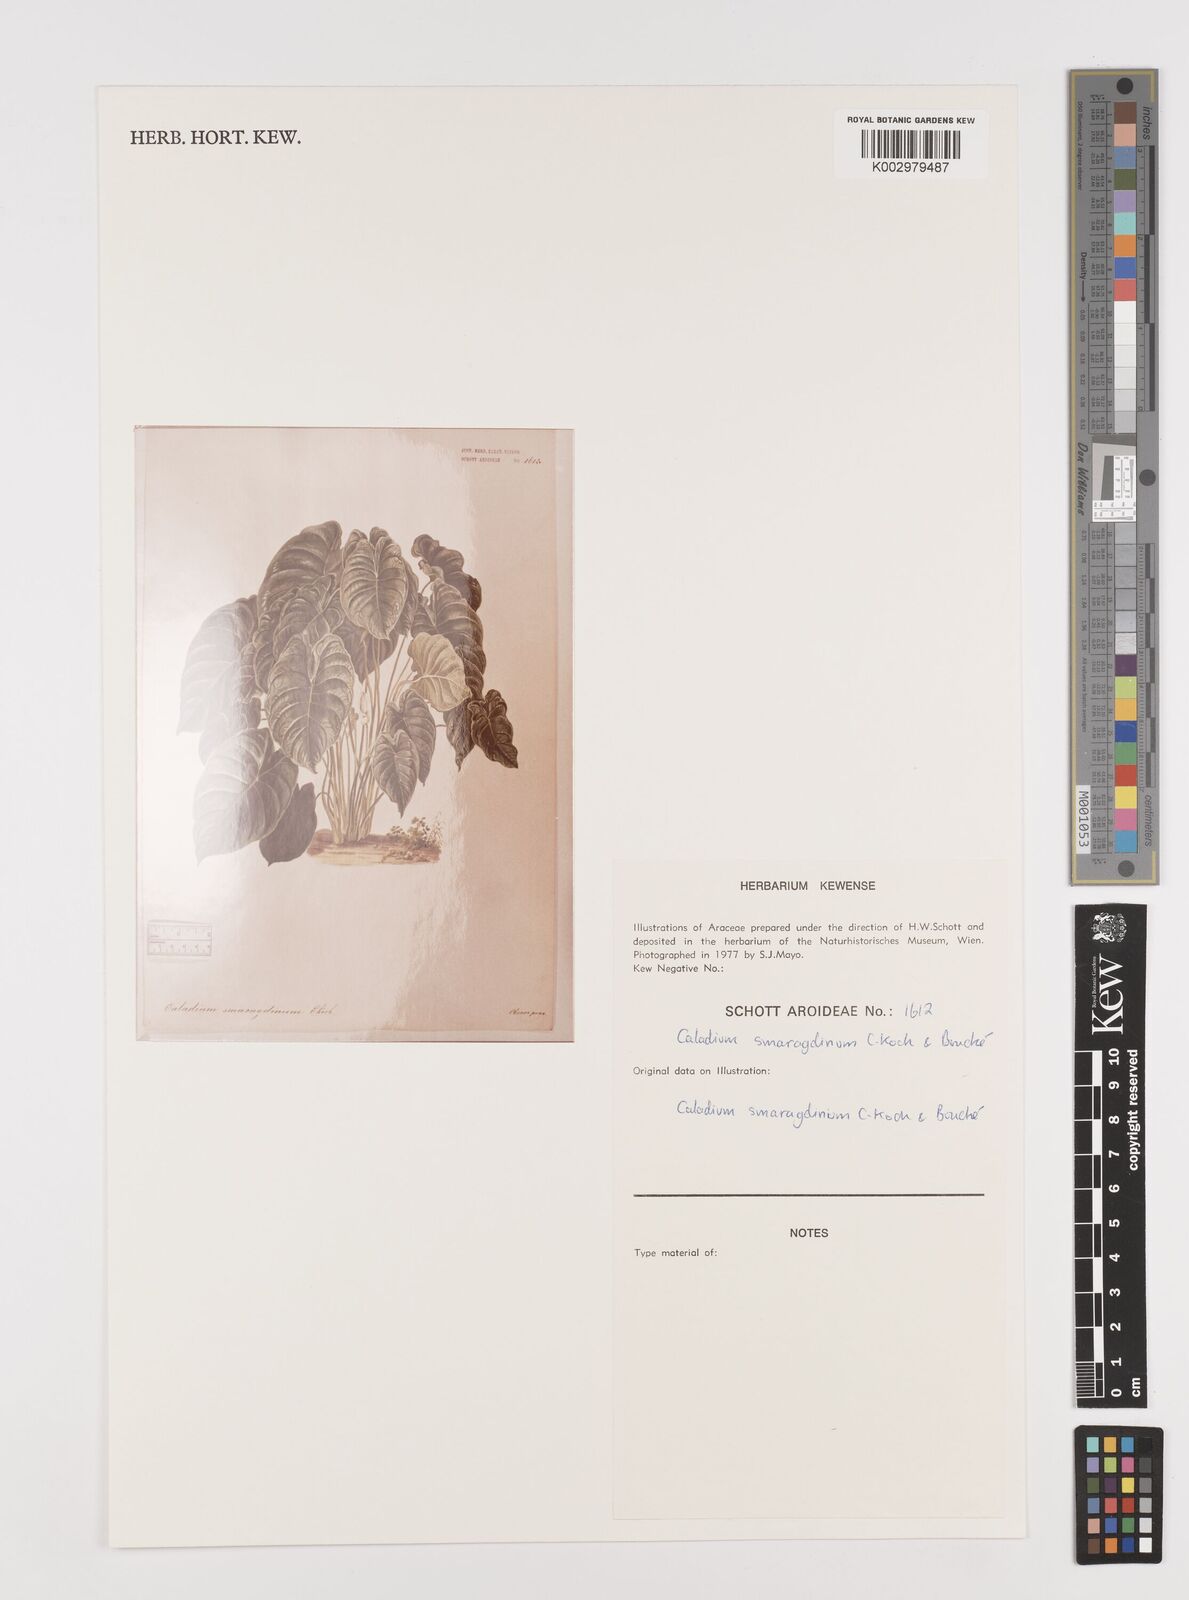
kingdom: Plantae
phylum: Tracheophyta
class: Liliopsida
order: Alismatales
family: Araceae
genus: Caladium
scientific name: Caladium schomburgkii
